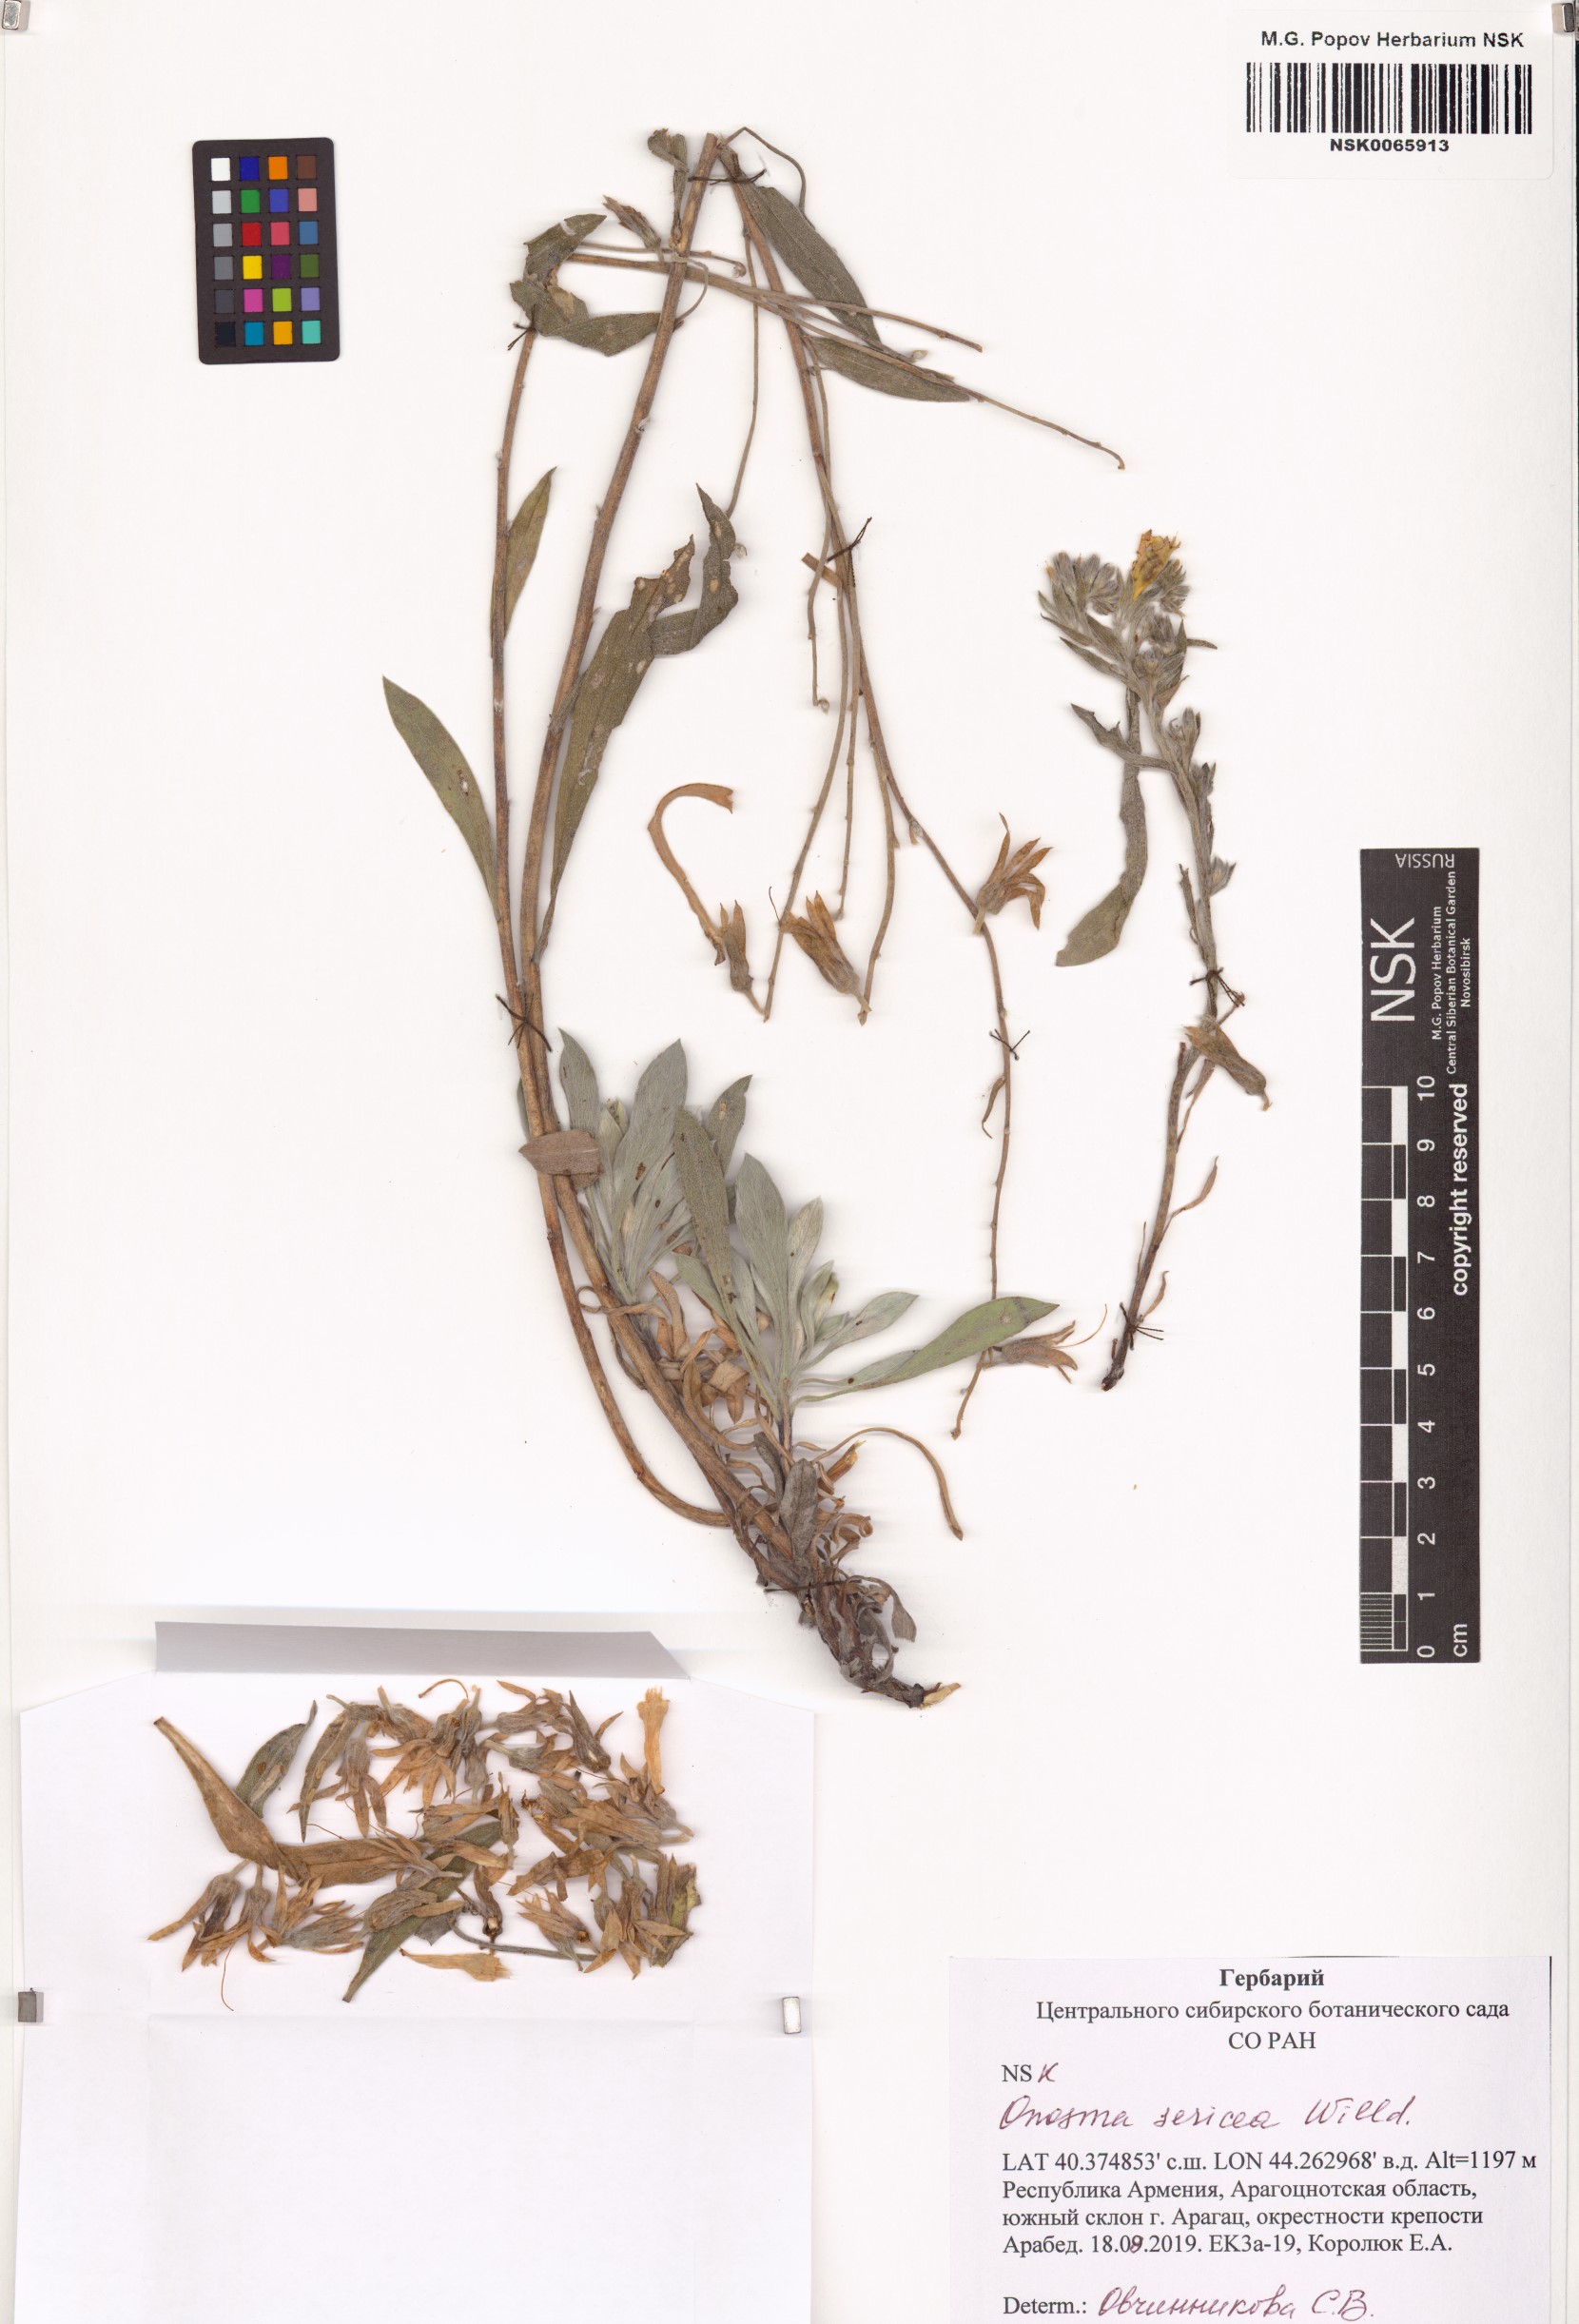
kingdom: Plantae
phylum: Tracheophyta
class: Magnoliopsida
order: Boraginales
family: Boraginaceae
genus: Onosma
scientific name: Onosma sericea
